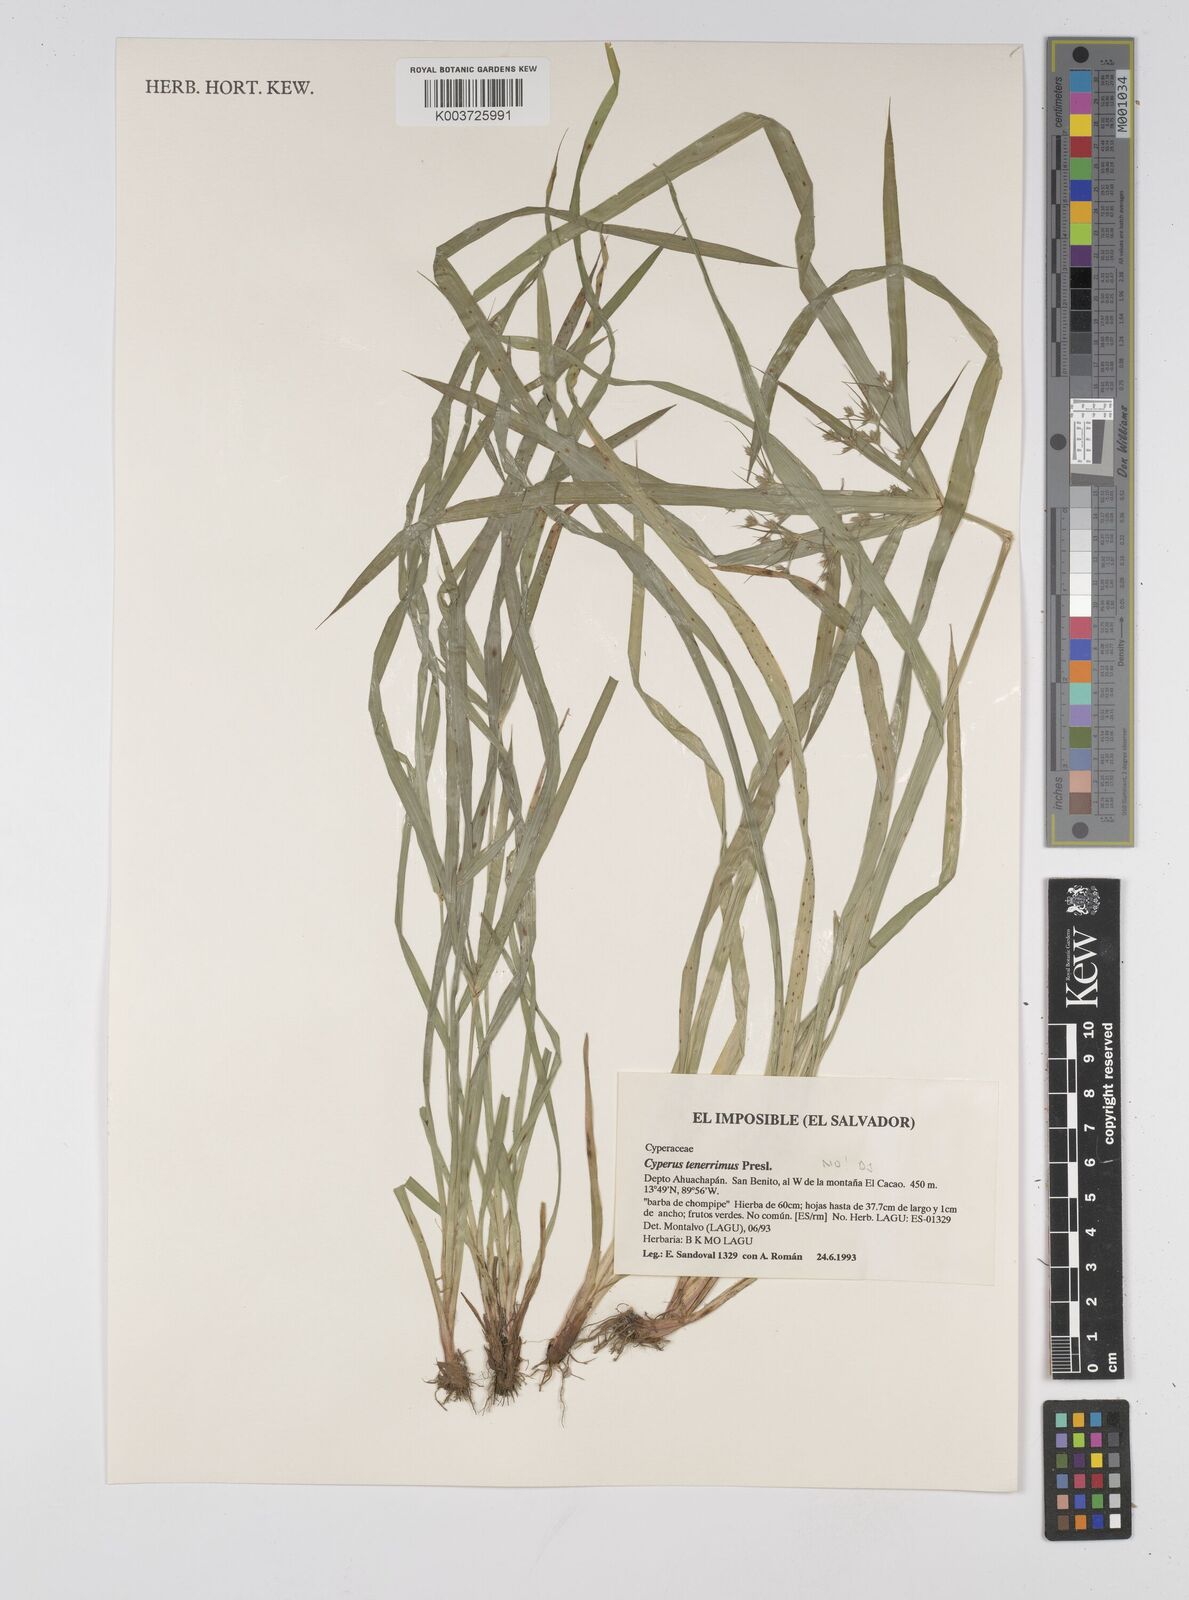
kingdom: Plantae
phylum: Tracheophyta
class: Liliopsida
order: Poales
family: Cyperaceae
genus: Cyperus
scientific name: Cyperus tenerrimus
